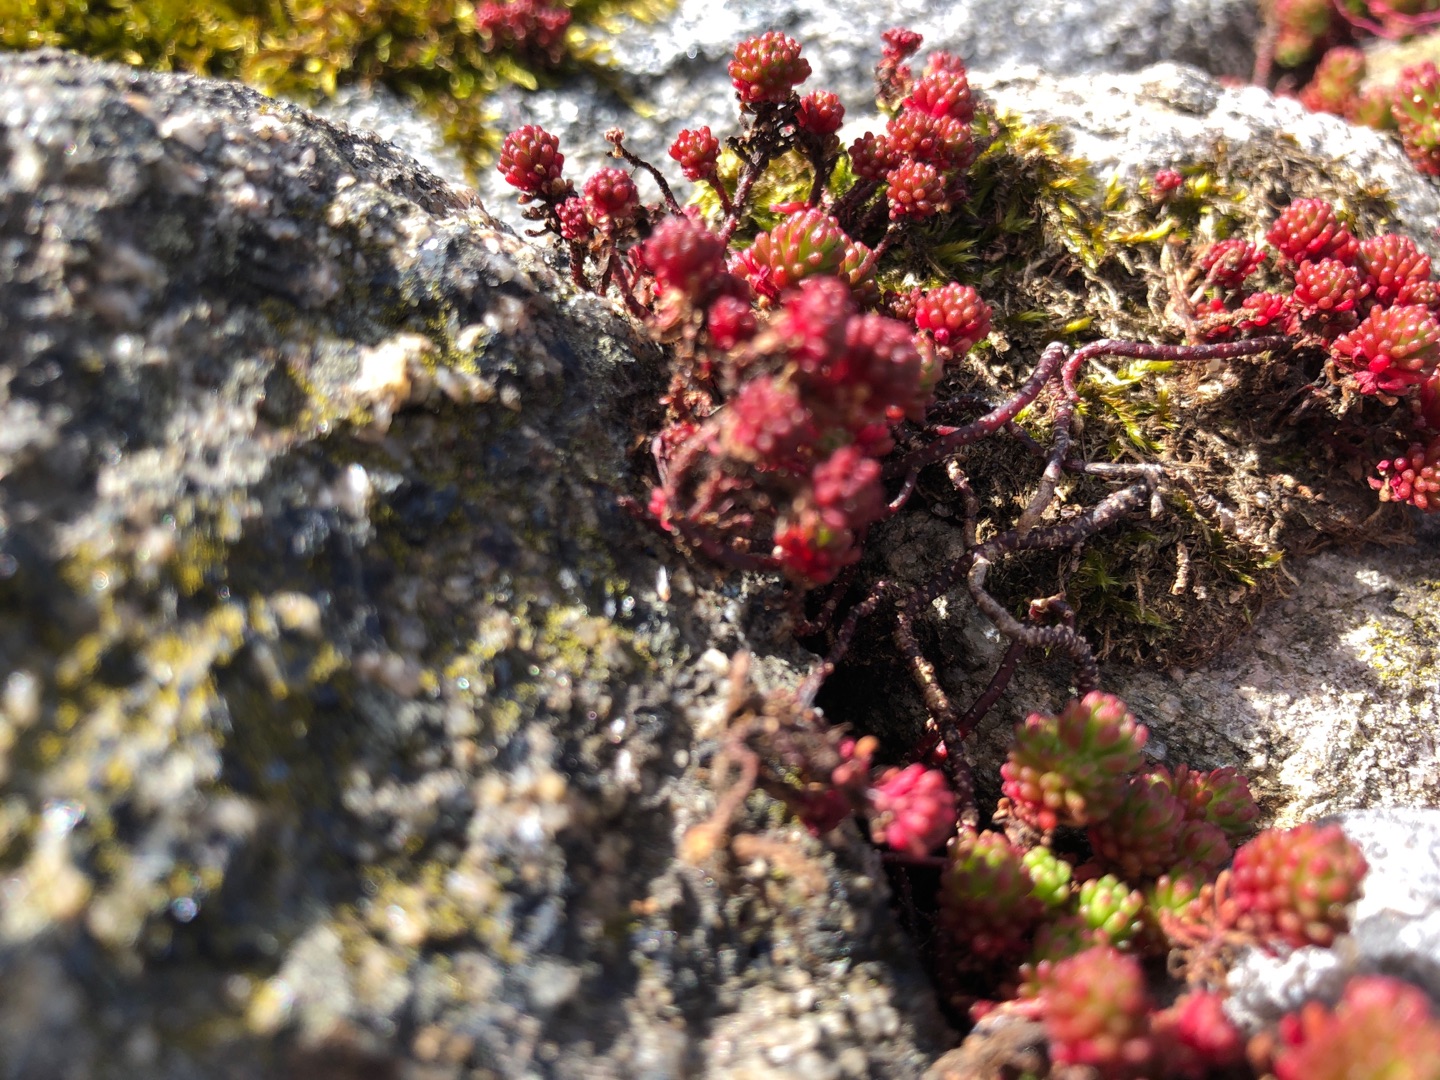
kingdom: Plantae
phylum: Tracheophyta
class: Magnoliopsida
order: Saxifragales
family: Crassulaceae
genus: Sedum
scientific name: Sedum lydium
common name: Mos-stenurt
